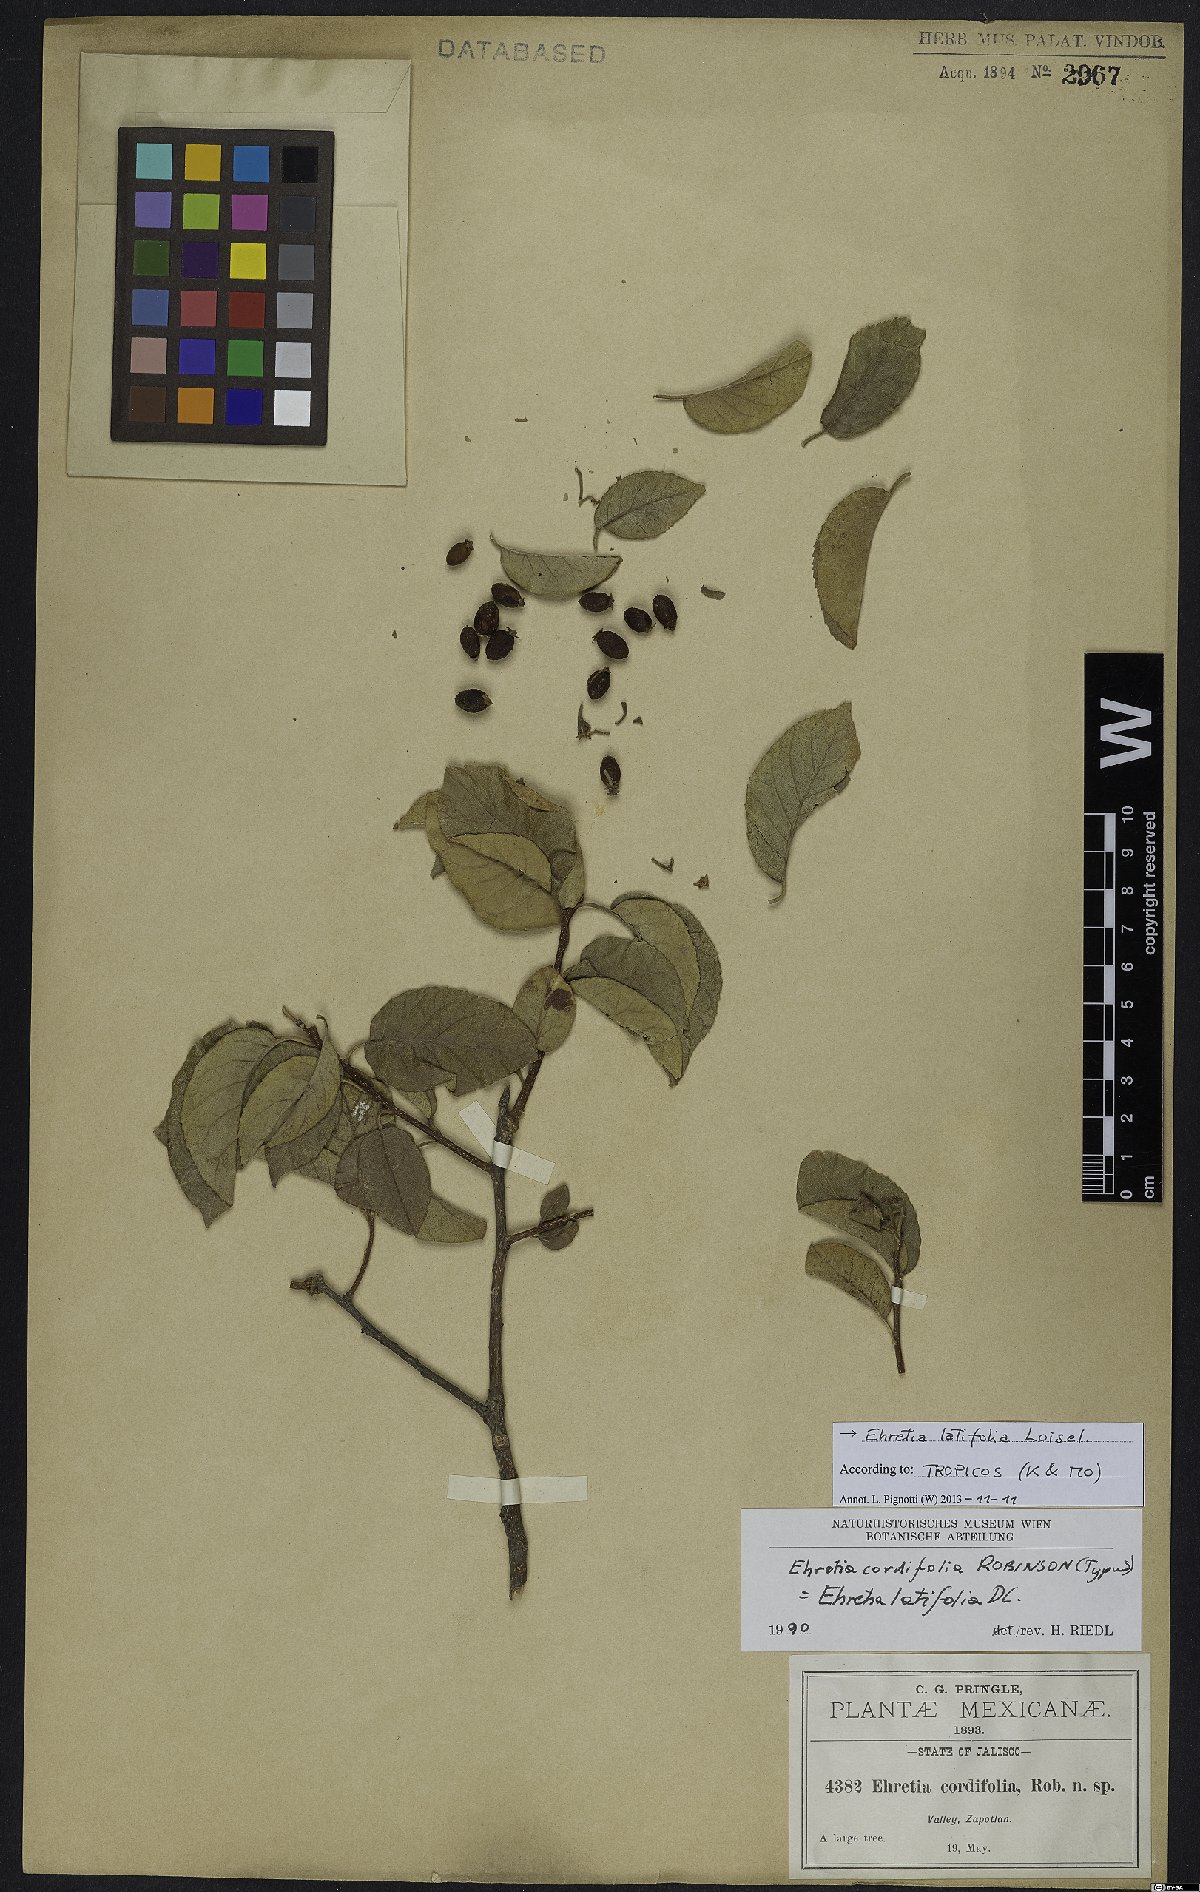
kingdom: Plantae
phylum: Tracheophyta
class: Magnoliopsida
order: Boraginales
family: Ehretiaceae
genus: Ehretia
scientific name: Ehretia latifolia
